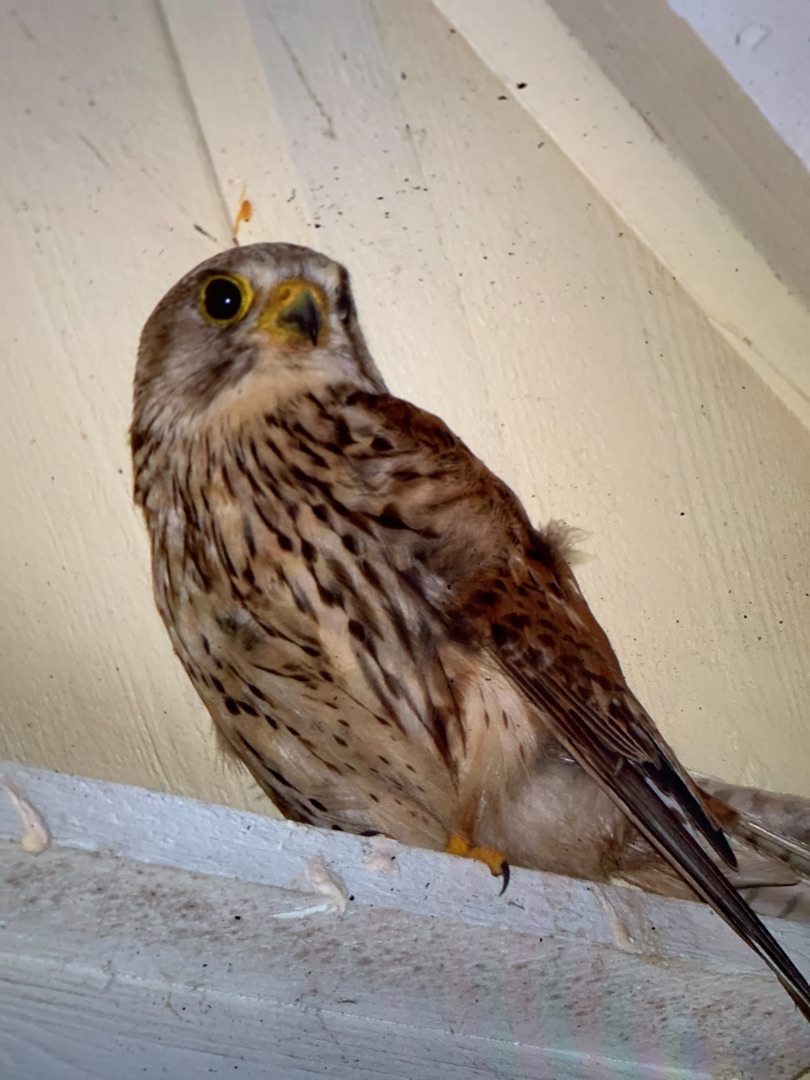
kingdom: Animalia
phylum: Chordata
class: Aves
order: Falconiformes
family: Falconidae
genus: Falco
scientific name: Falco tinnunculus
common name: Tårnfalk
